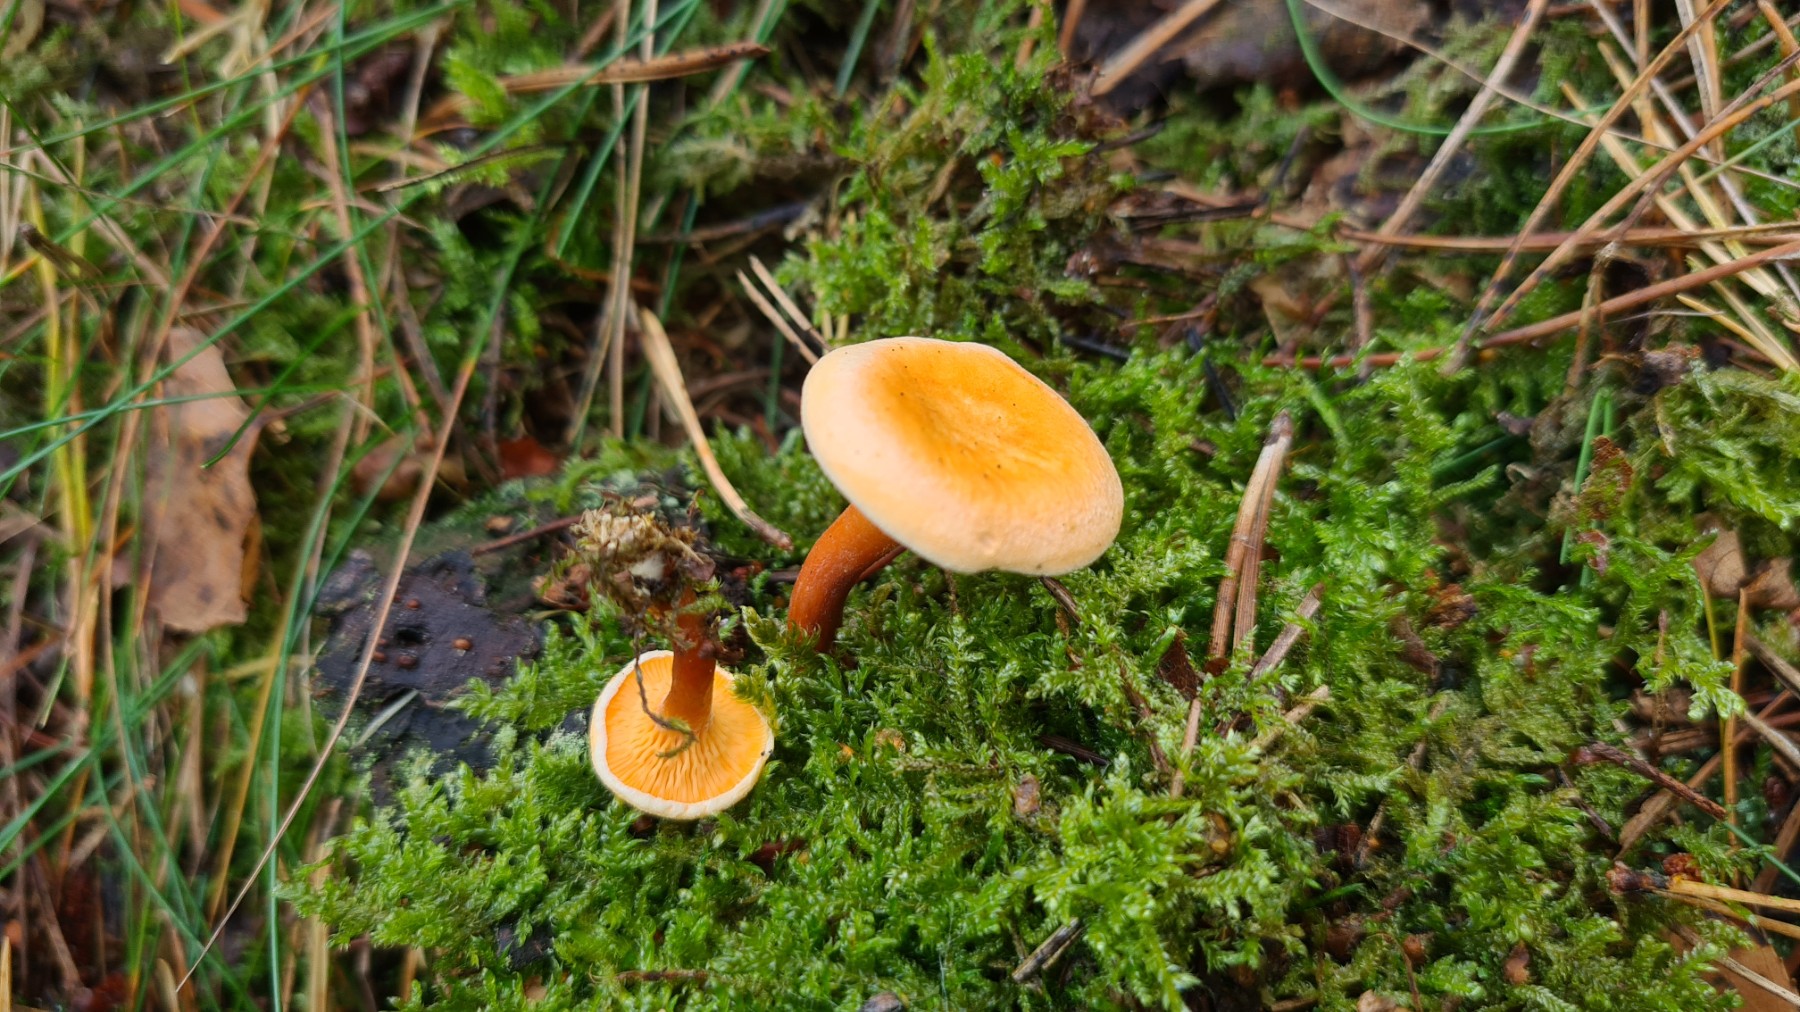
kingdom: Fungi
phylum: Basidiomycota
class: Agaricomycetes
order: Boletales
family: Hygrophoropsidaceae
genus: Hygrophoropsis
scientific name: Hygrophoropsis aurantiaca
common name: almindelig orangekantarel
